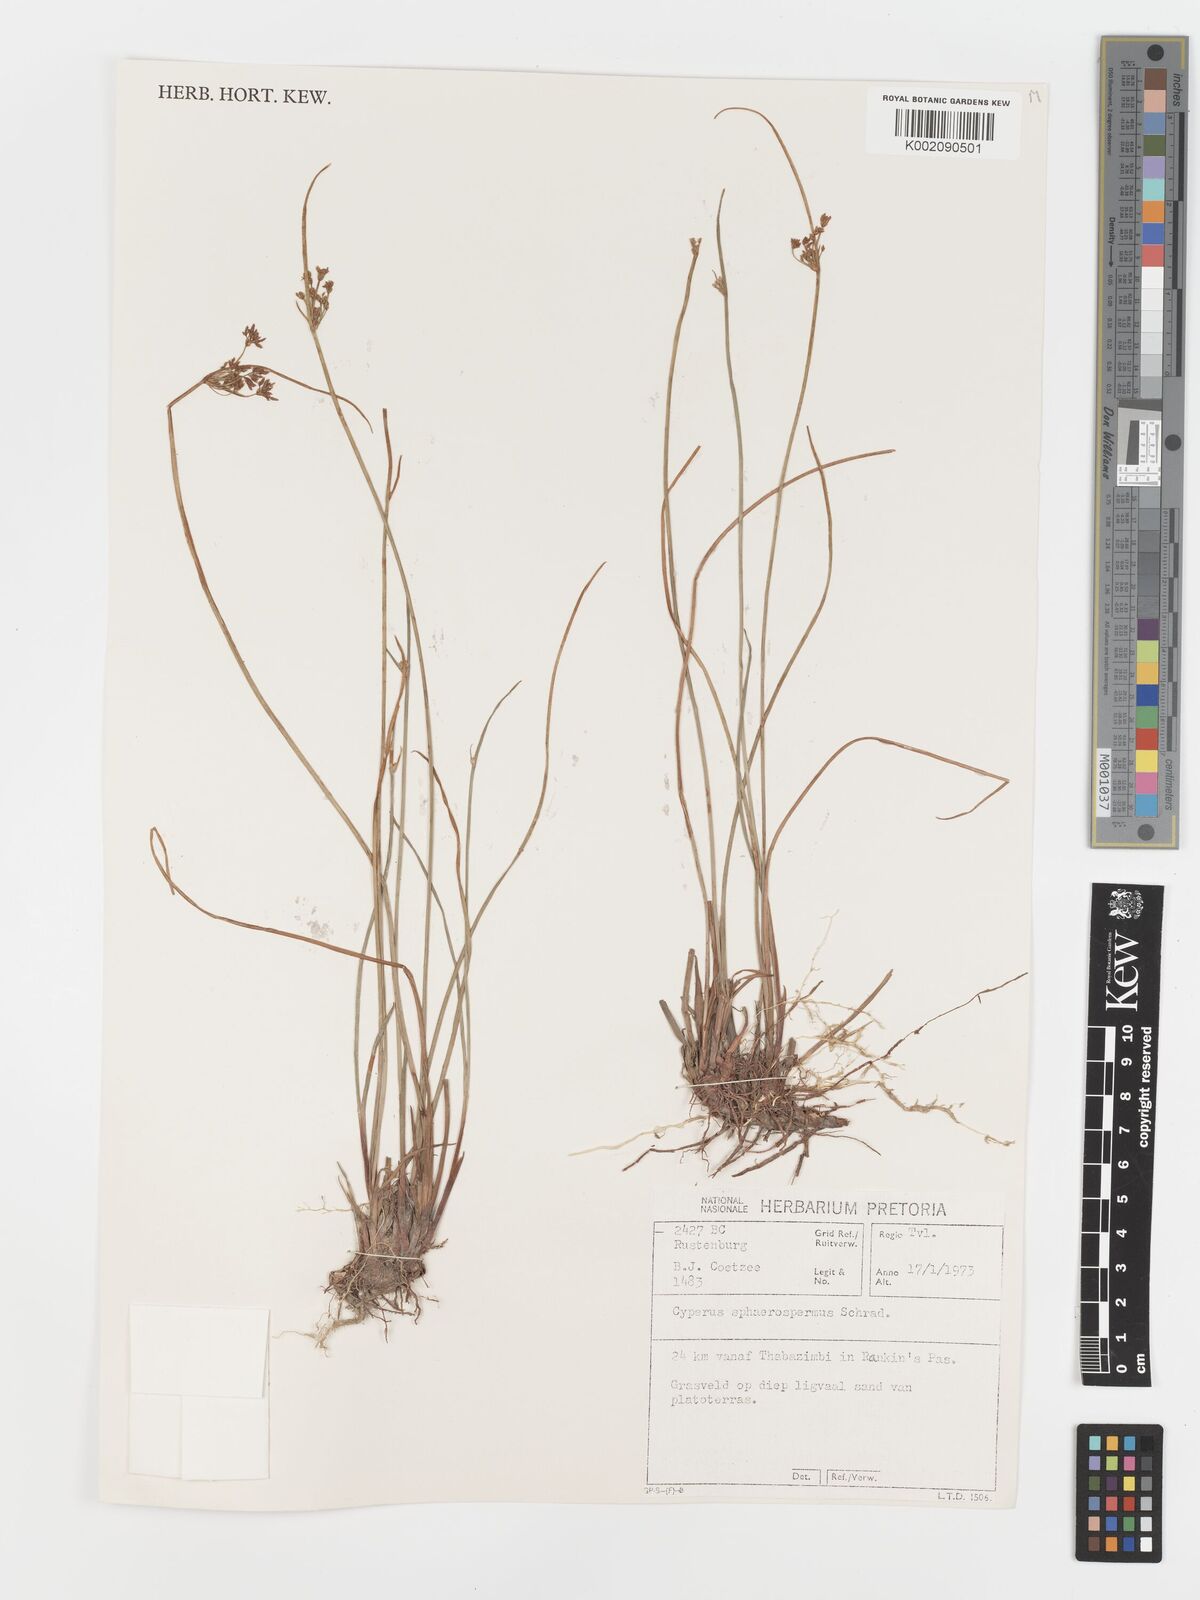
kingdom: Plantae
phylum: Tracheophyta
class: Liliopsida
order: Poales
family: Cyperaceae
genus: Cyperus
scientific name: Cyperus sphaerospermus
